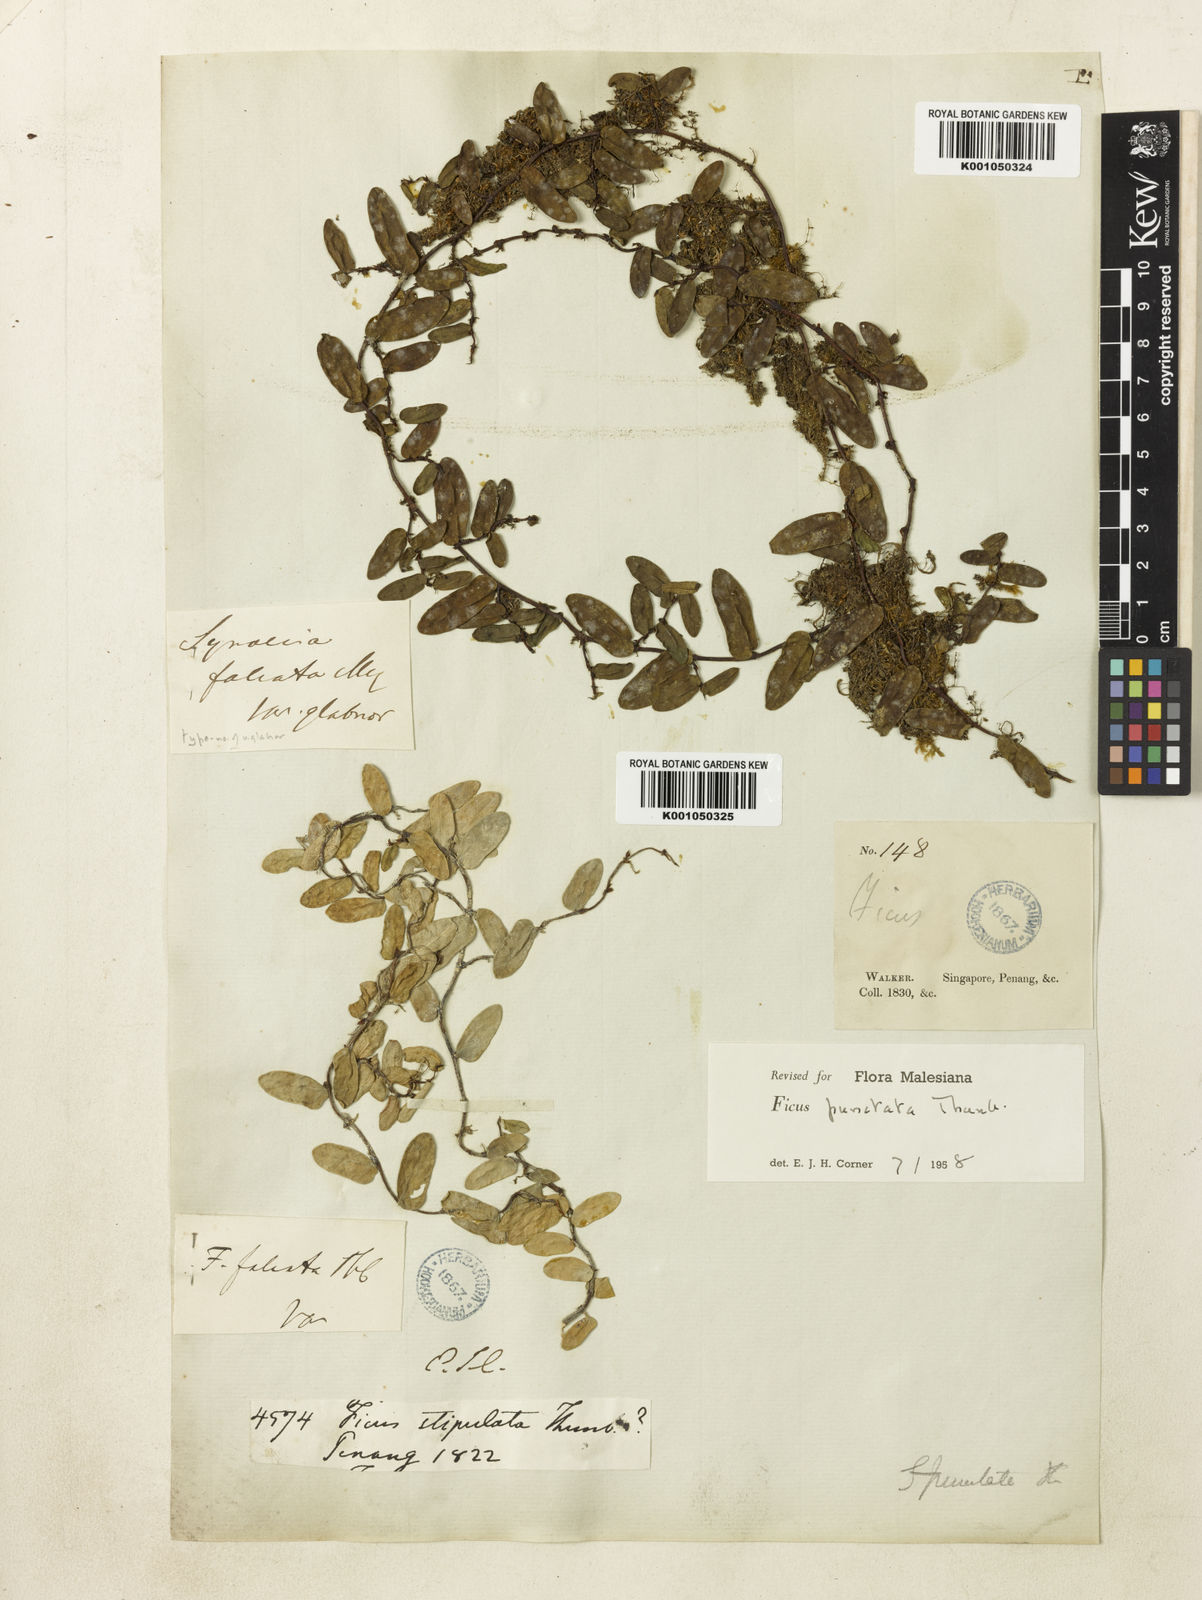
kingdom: Plantae
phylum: Tracheophyta
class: Magnoliopsida
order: Rosales
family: Moraceae
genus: Ficus
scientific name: Ficus punctata
